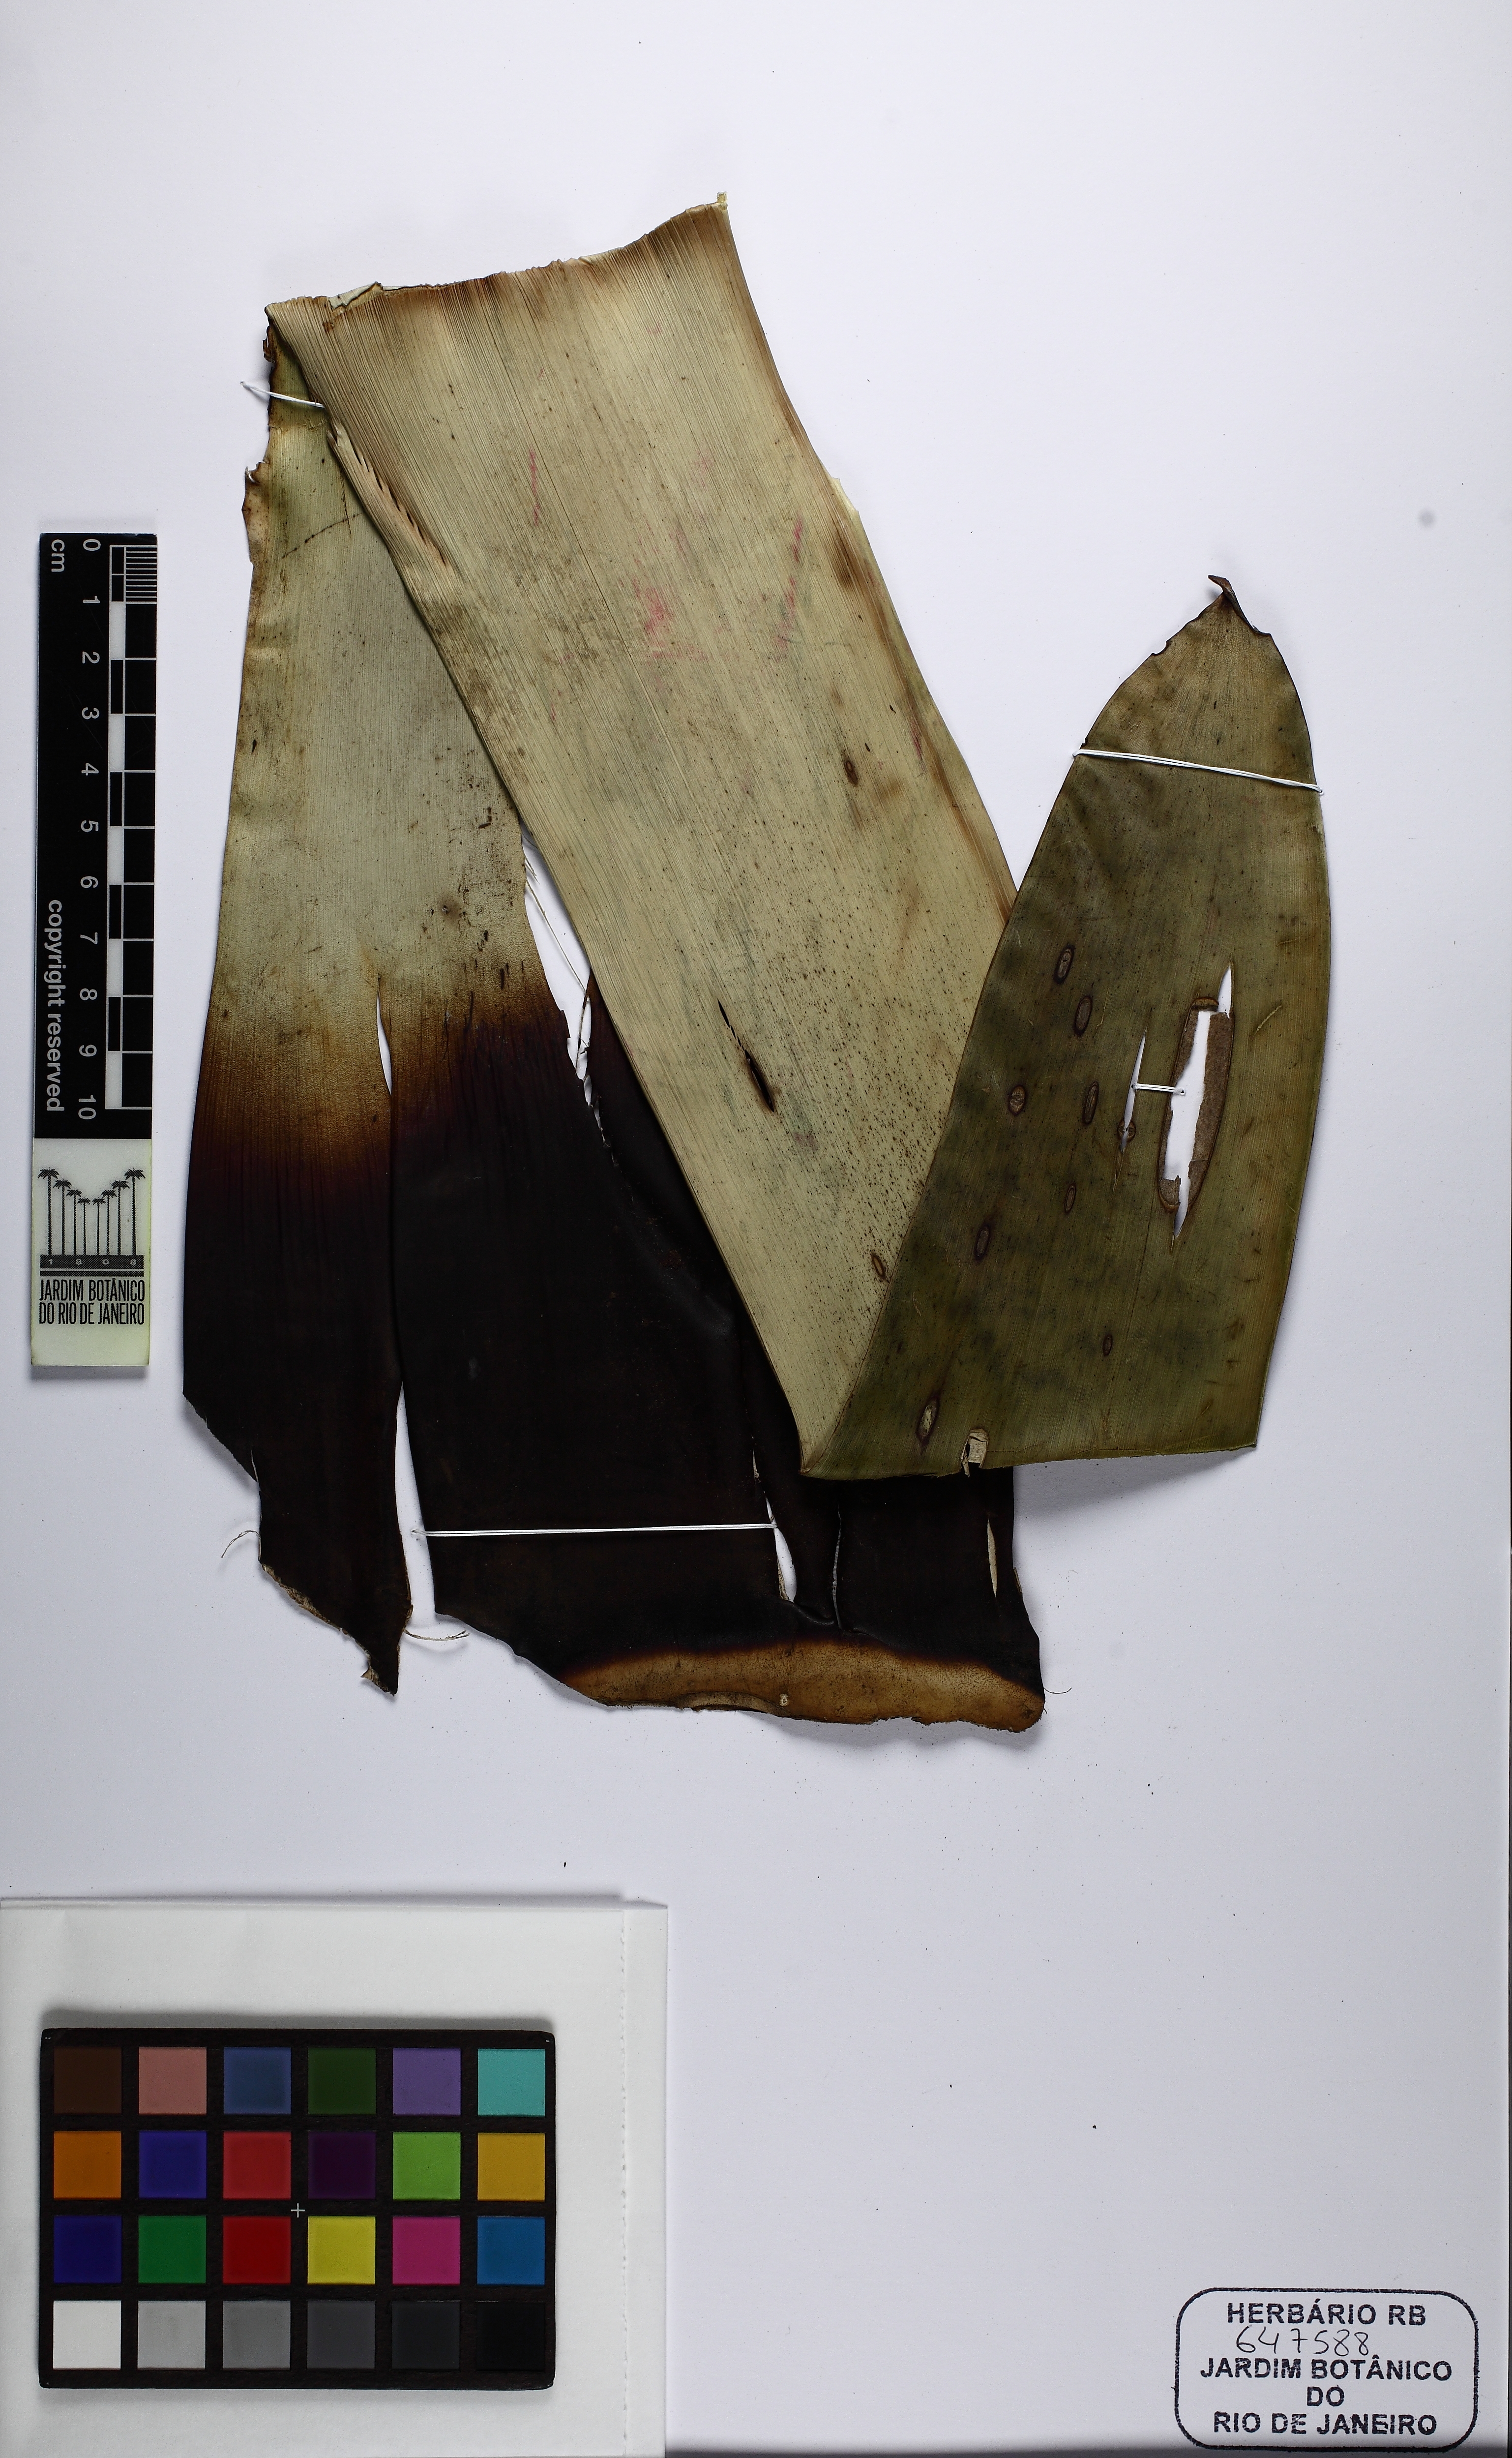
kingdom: Plantae
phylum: Tracheophyta
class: Liliopsida
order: Poales
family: Bromeliaceae
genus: Alcantarea
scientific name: Alcantarea simplicisticha
